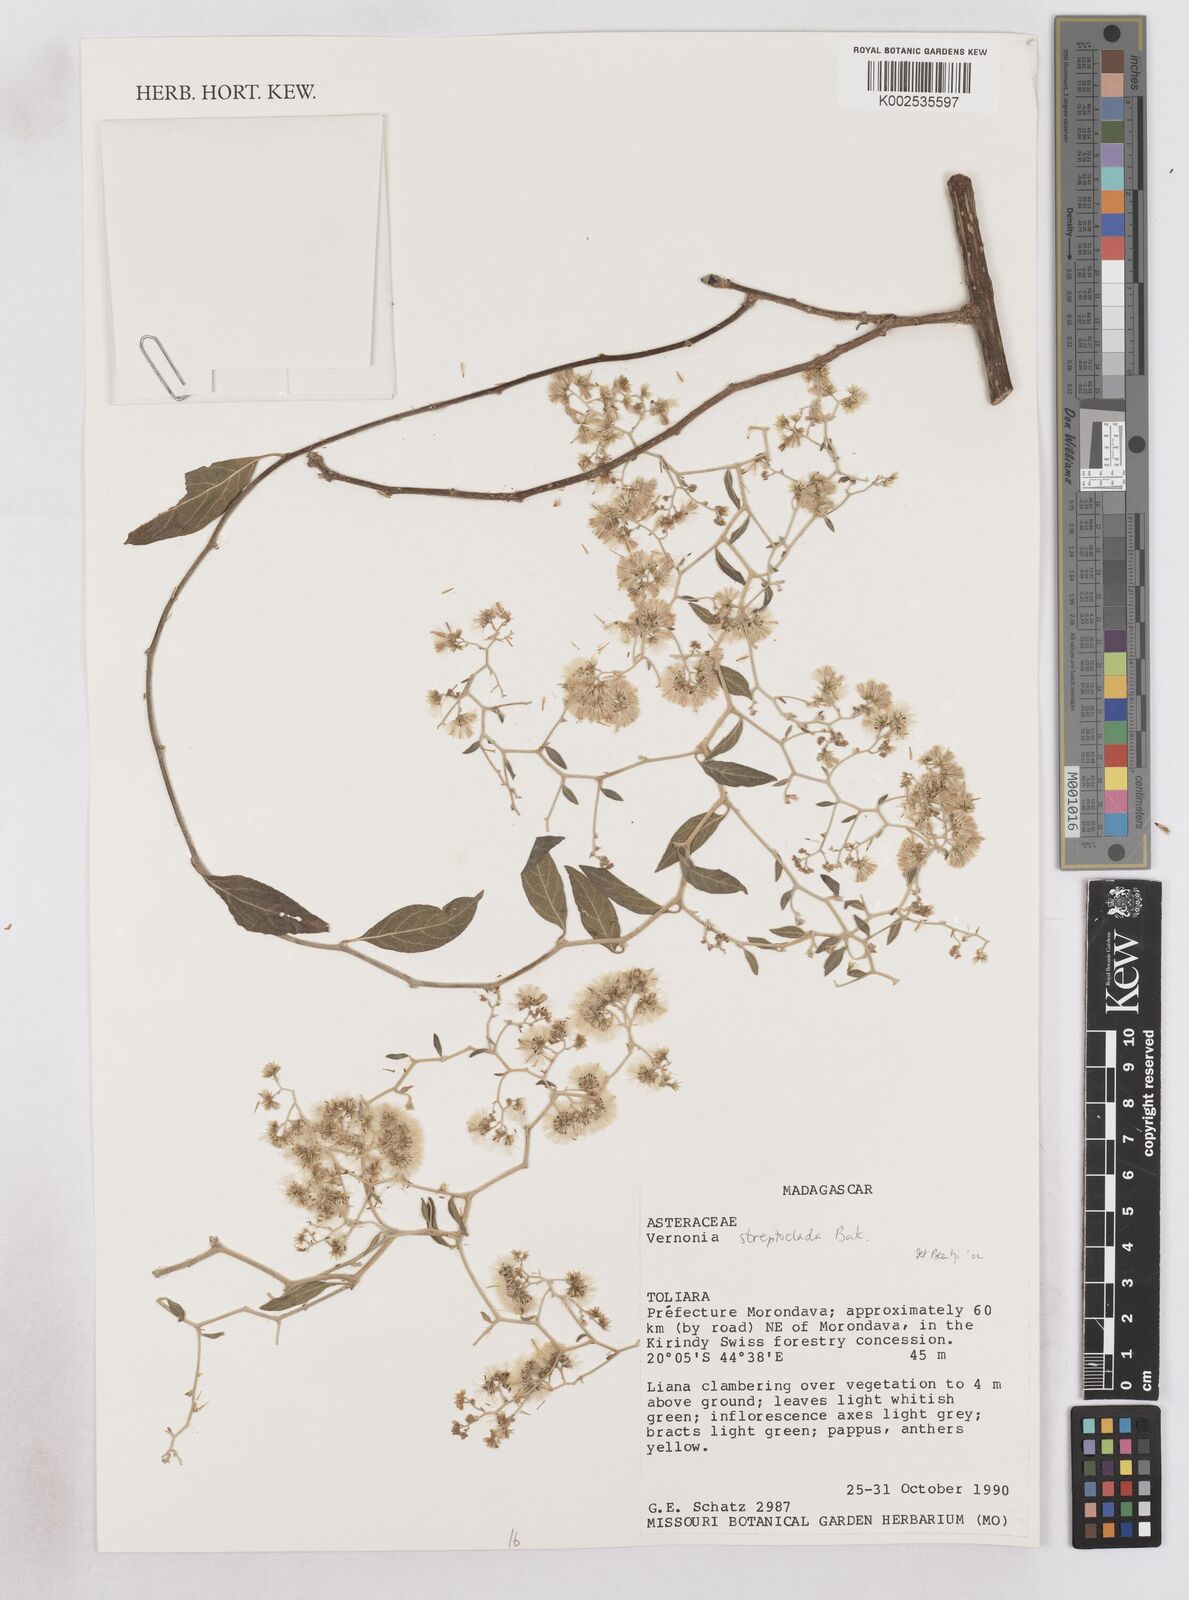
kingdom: Plantae
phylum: Tracheophyta
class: Magnoliopsida
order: Asterales
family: Asteraceae
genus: Distephanus
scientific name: Distephanus streptocladus
